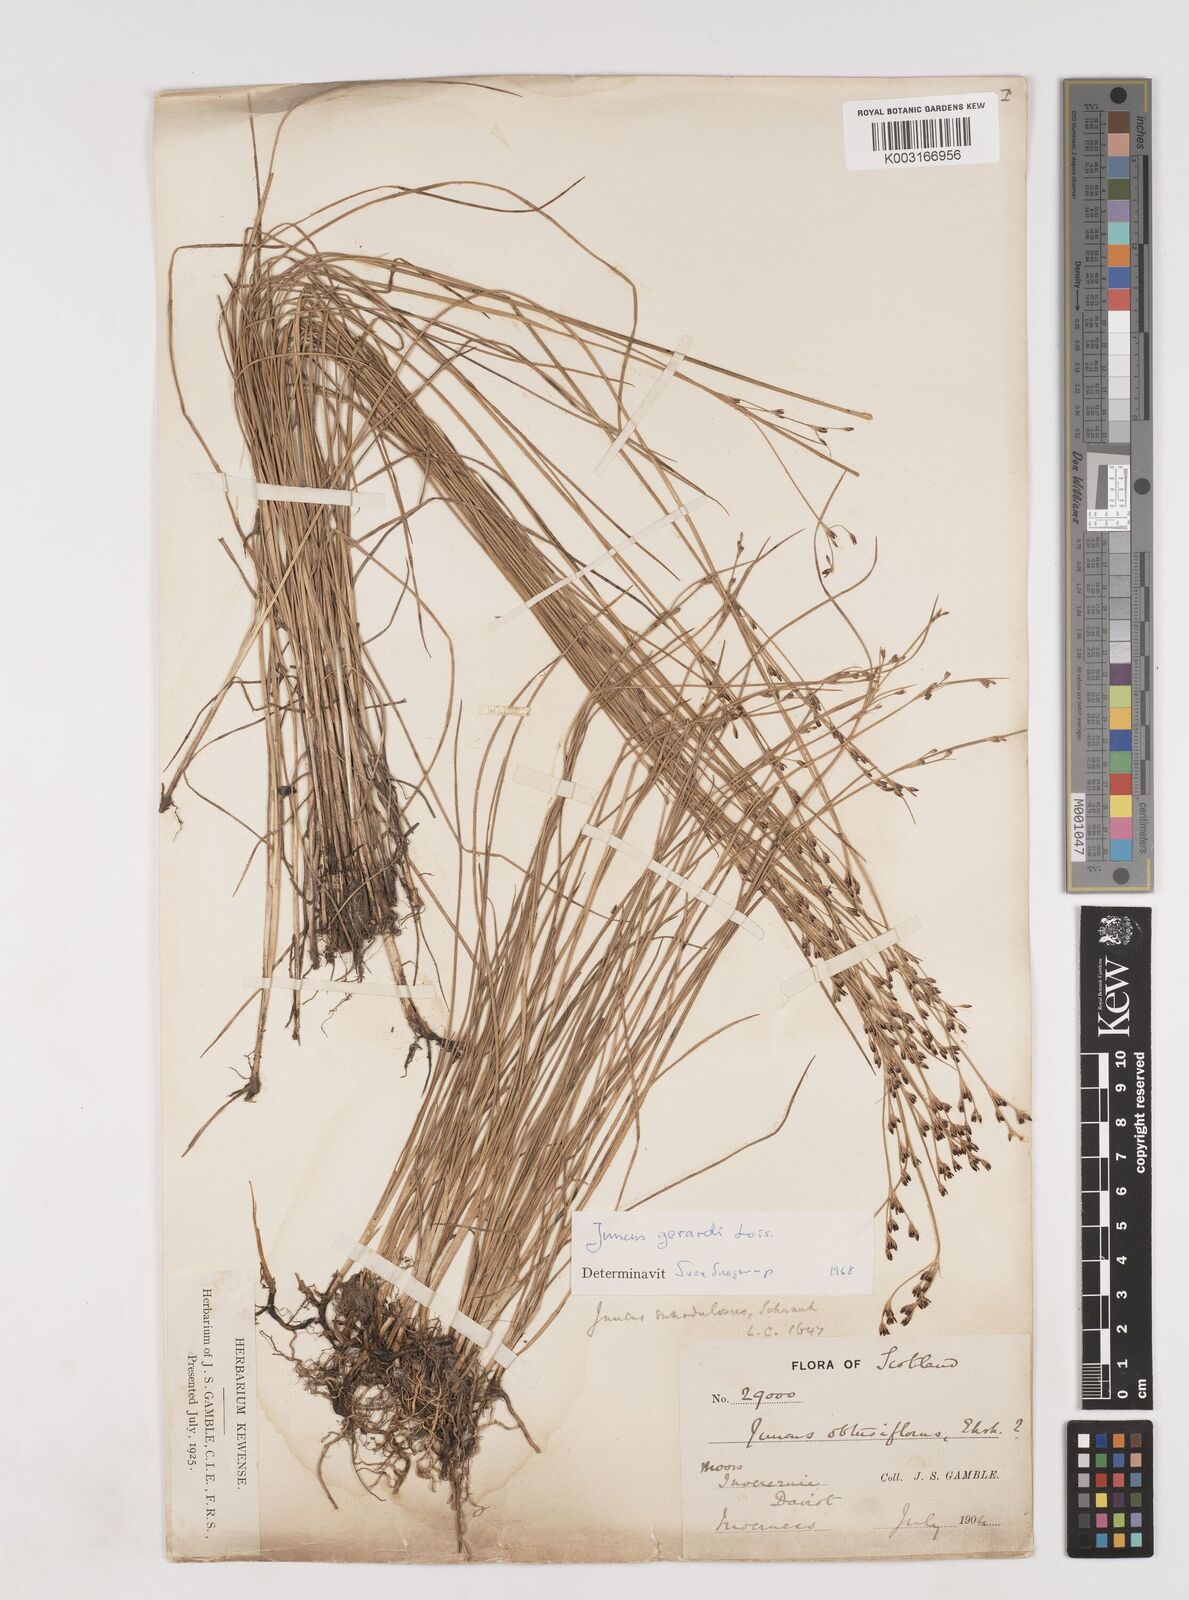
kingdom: Plantae
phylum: Tracheophyta
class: Liliopsida
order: Poales
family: Juncaceae
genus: Juncus
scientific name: Juncus gerardi
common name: Saltmarsh rush
